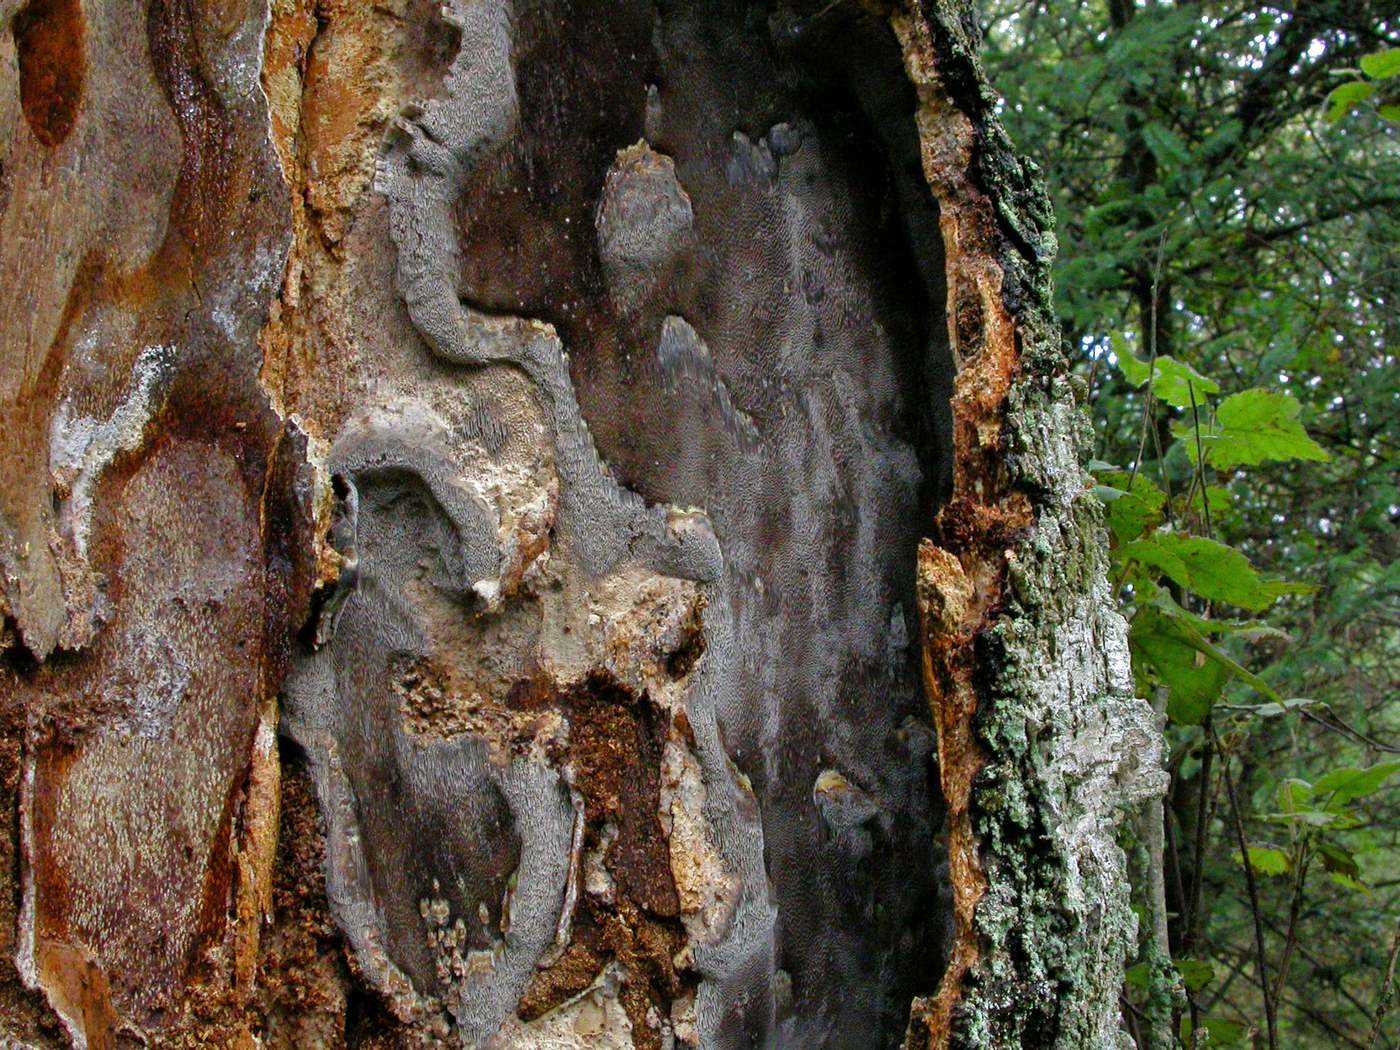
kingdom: Fungi
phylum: Basidiomycota
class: Agaricomycetes
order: Hymenochaetales
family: Hymenochaetaceae
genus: Inonotus
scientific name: Inonotus obliquus
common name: birke-spejlporesvamp
